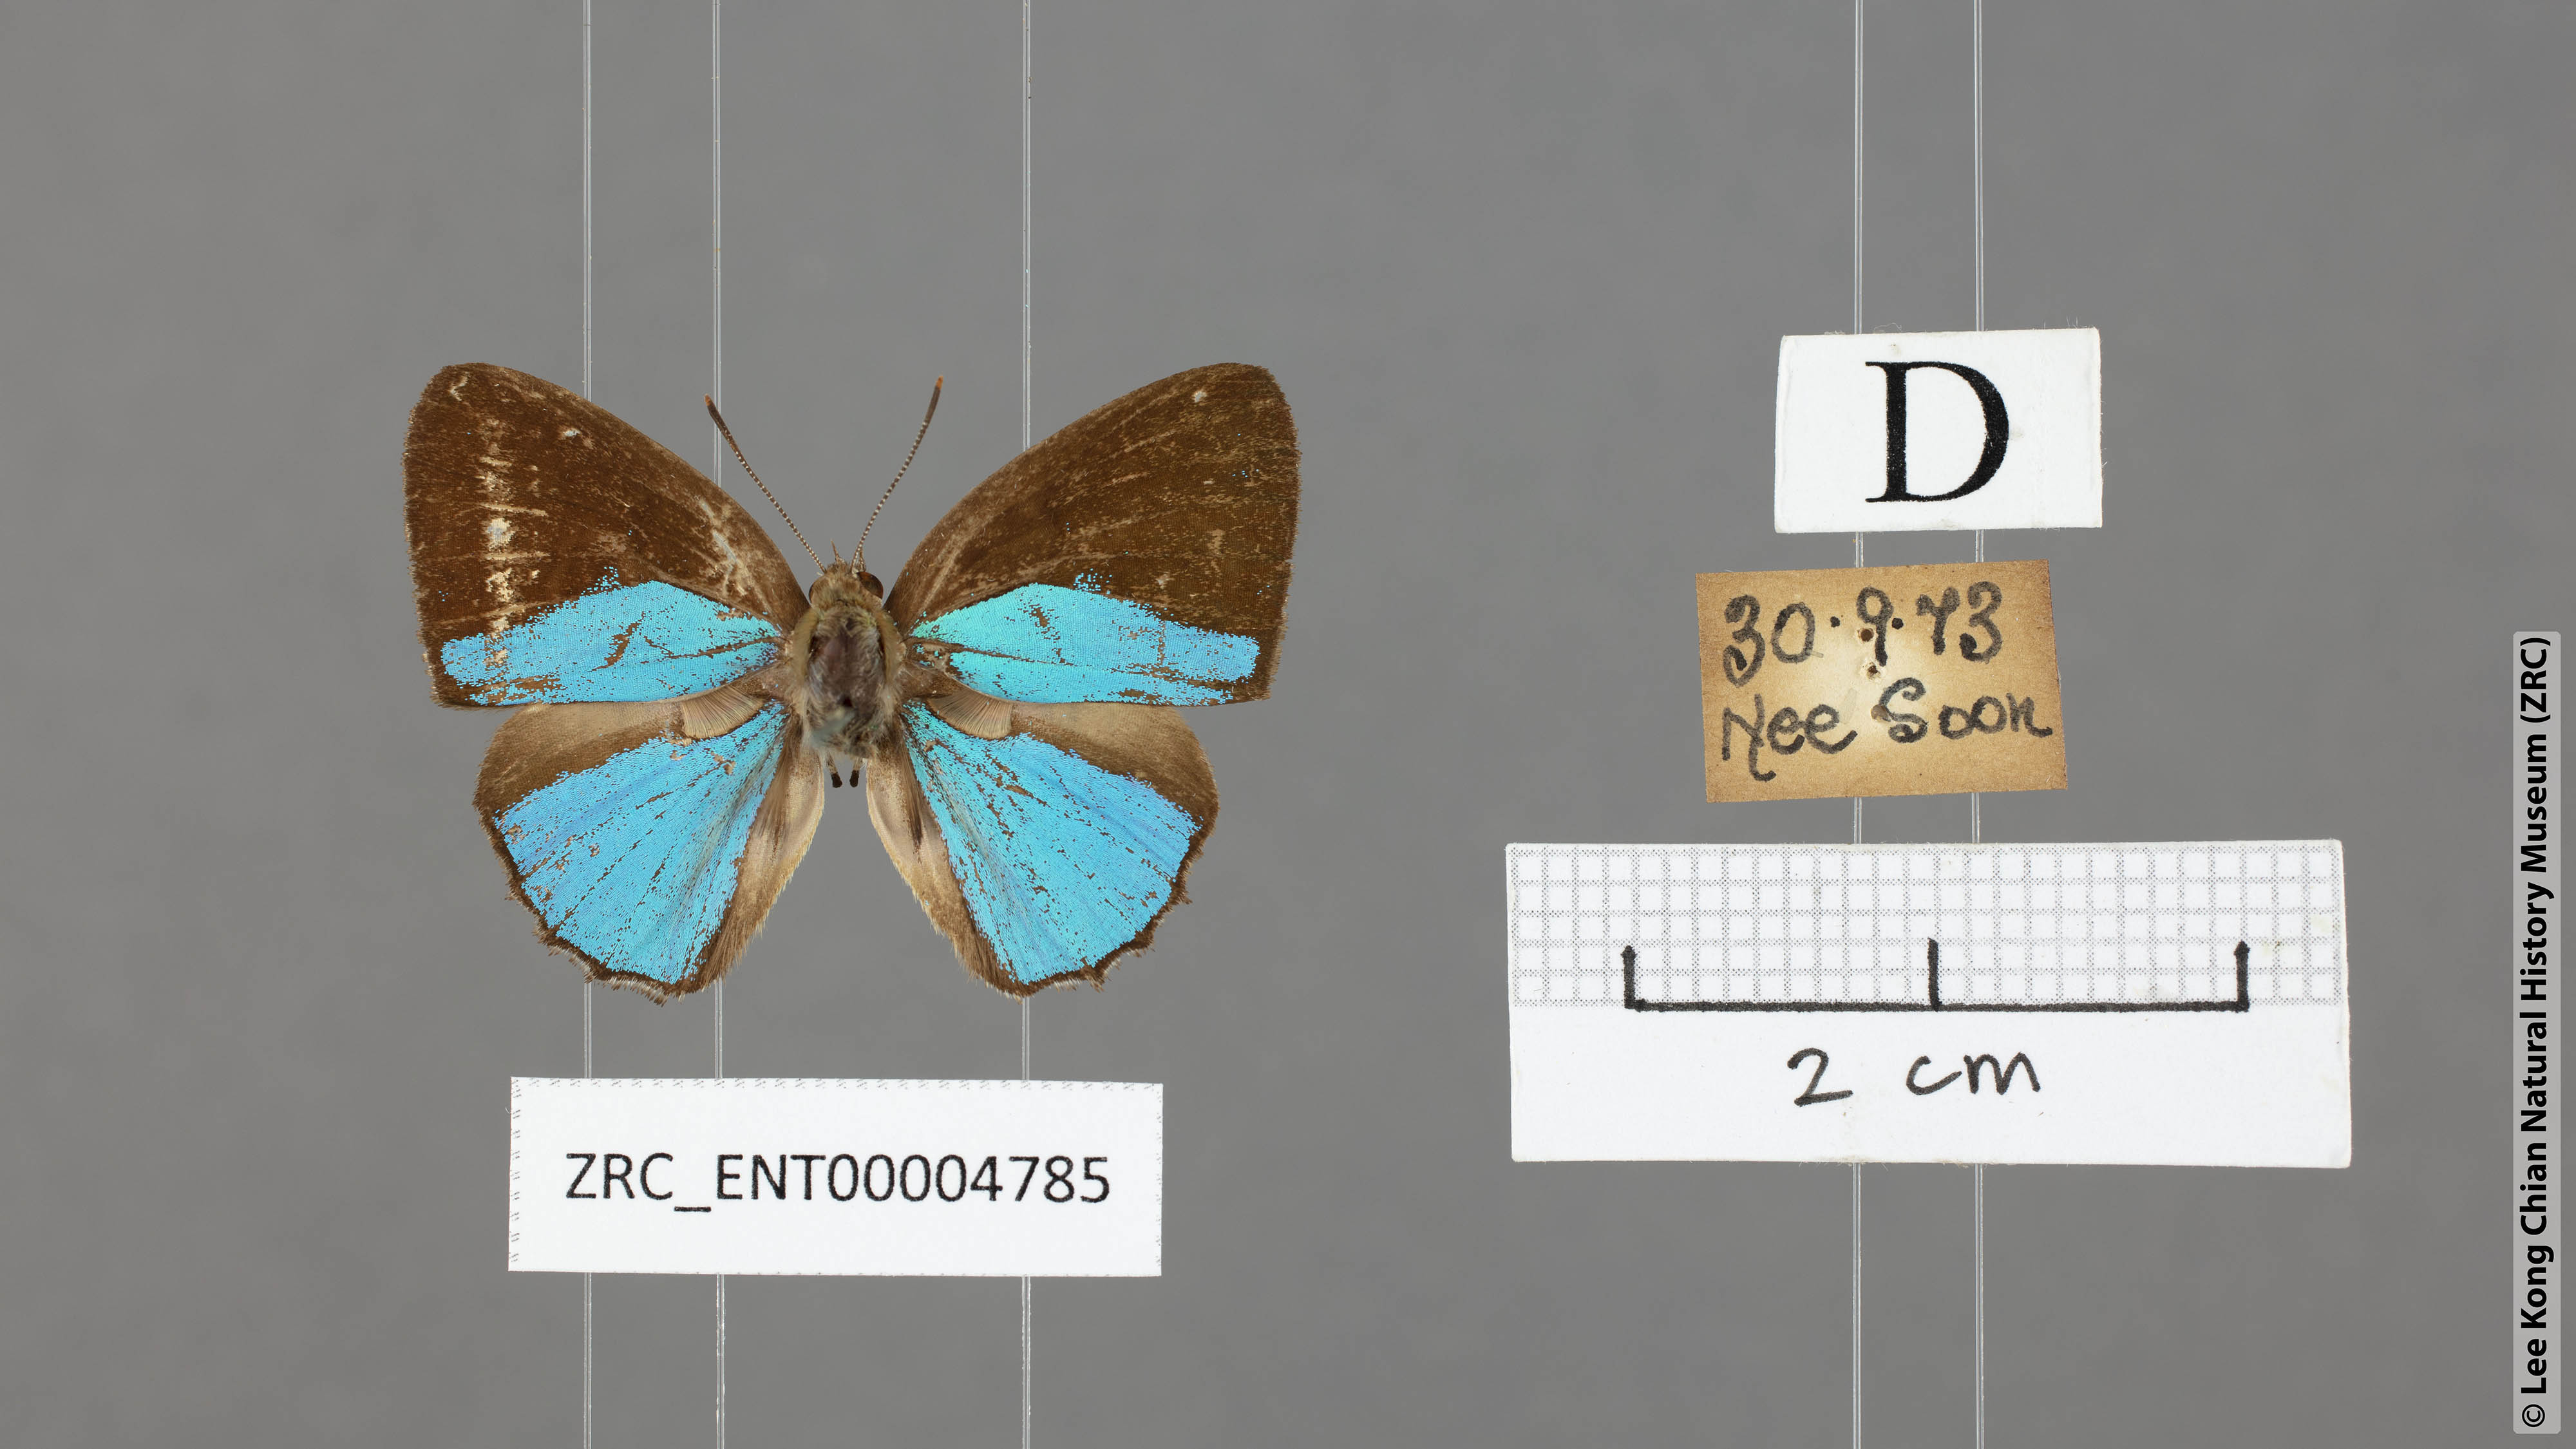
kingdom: Animalia
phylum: Arthropoda
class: Insecta
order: Lepidoptera
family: Lycaenidae
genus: Poritia
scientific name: Poritia sumatrae
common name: Sumatran gem
